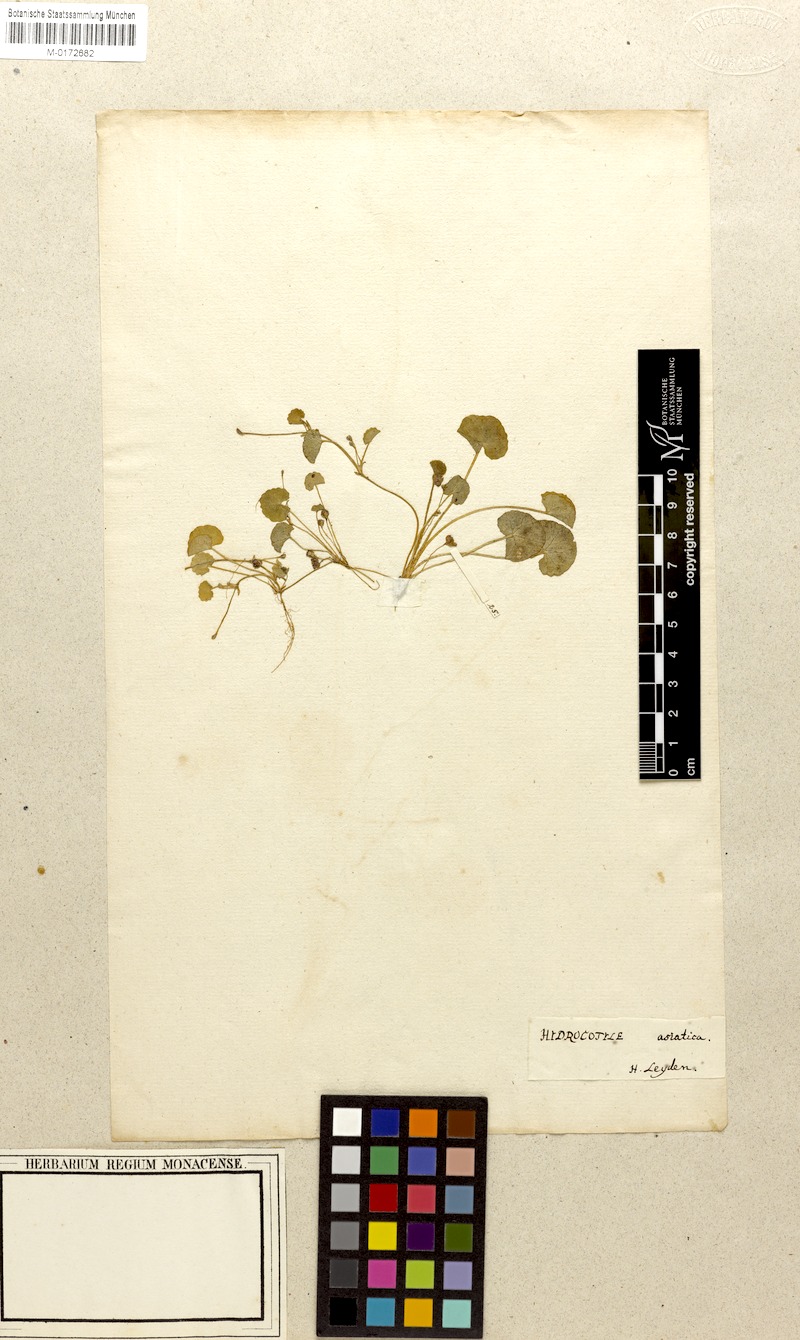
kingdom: Plantae
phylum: Tracheophyta
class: Magnoliopsida
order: Apiales
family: Apiaceae
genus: Centella
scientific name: Centella asiatica
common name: Spadeleaf
